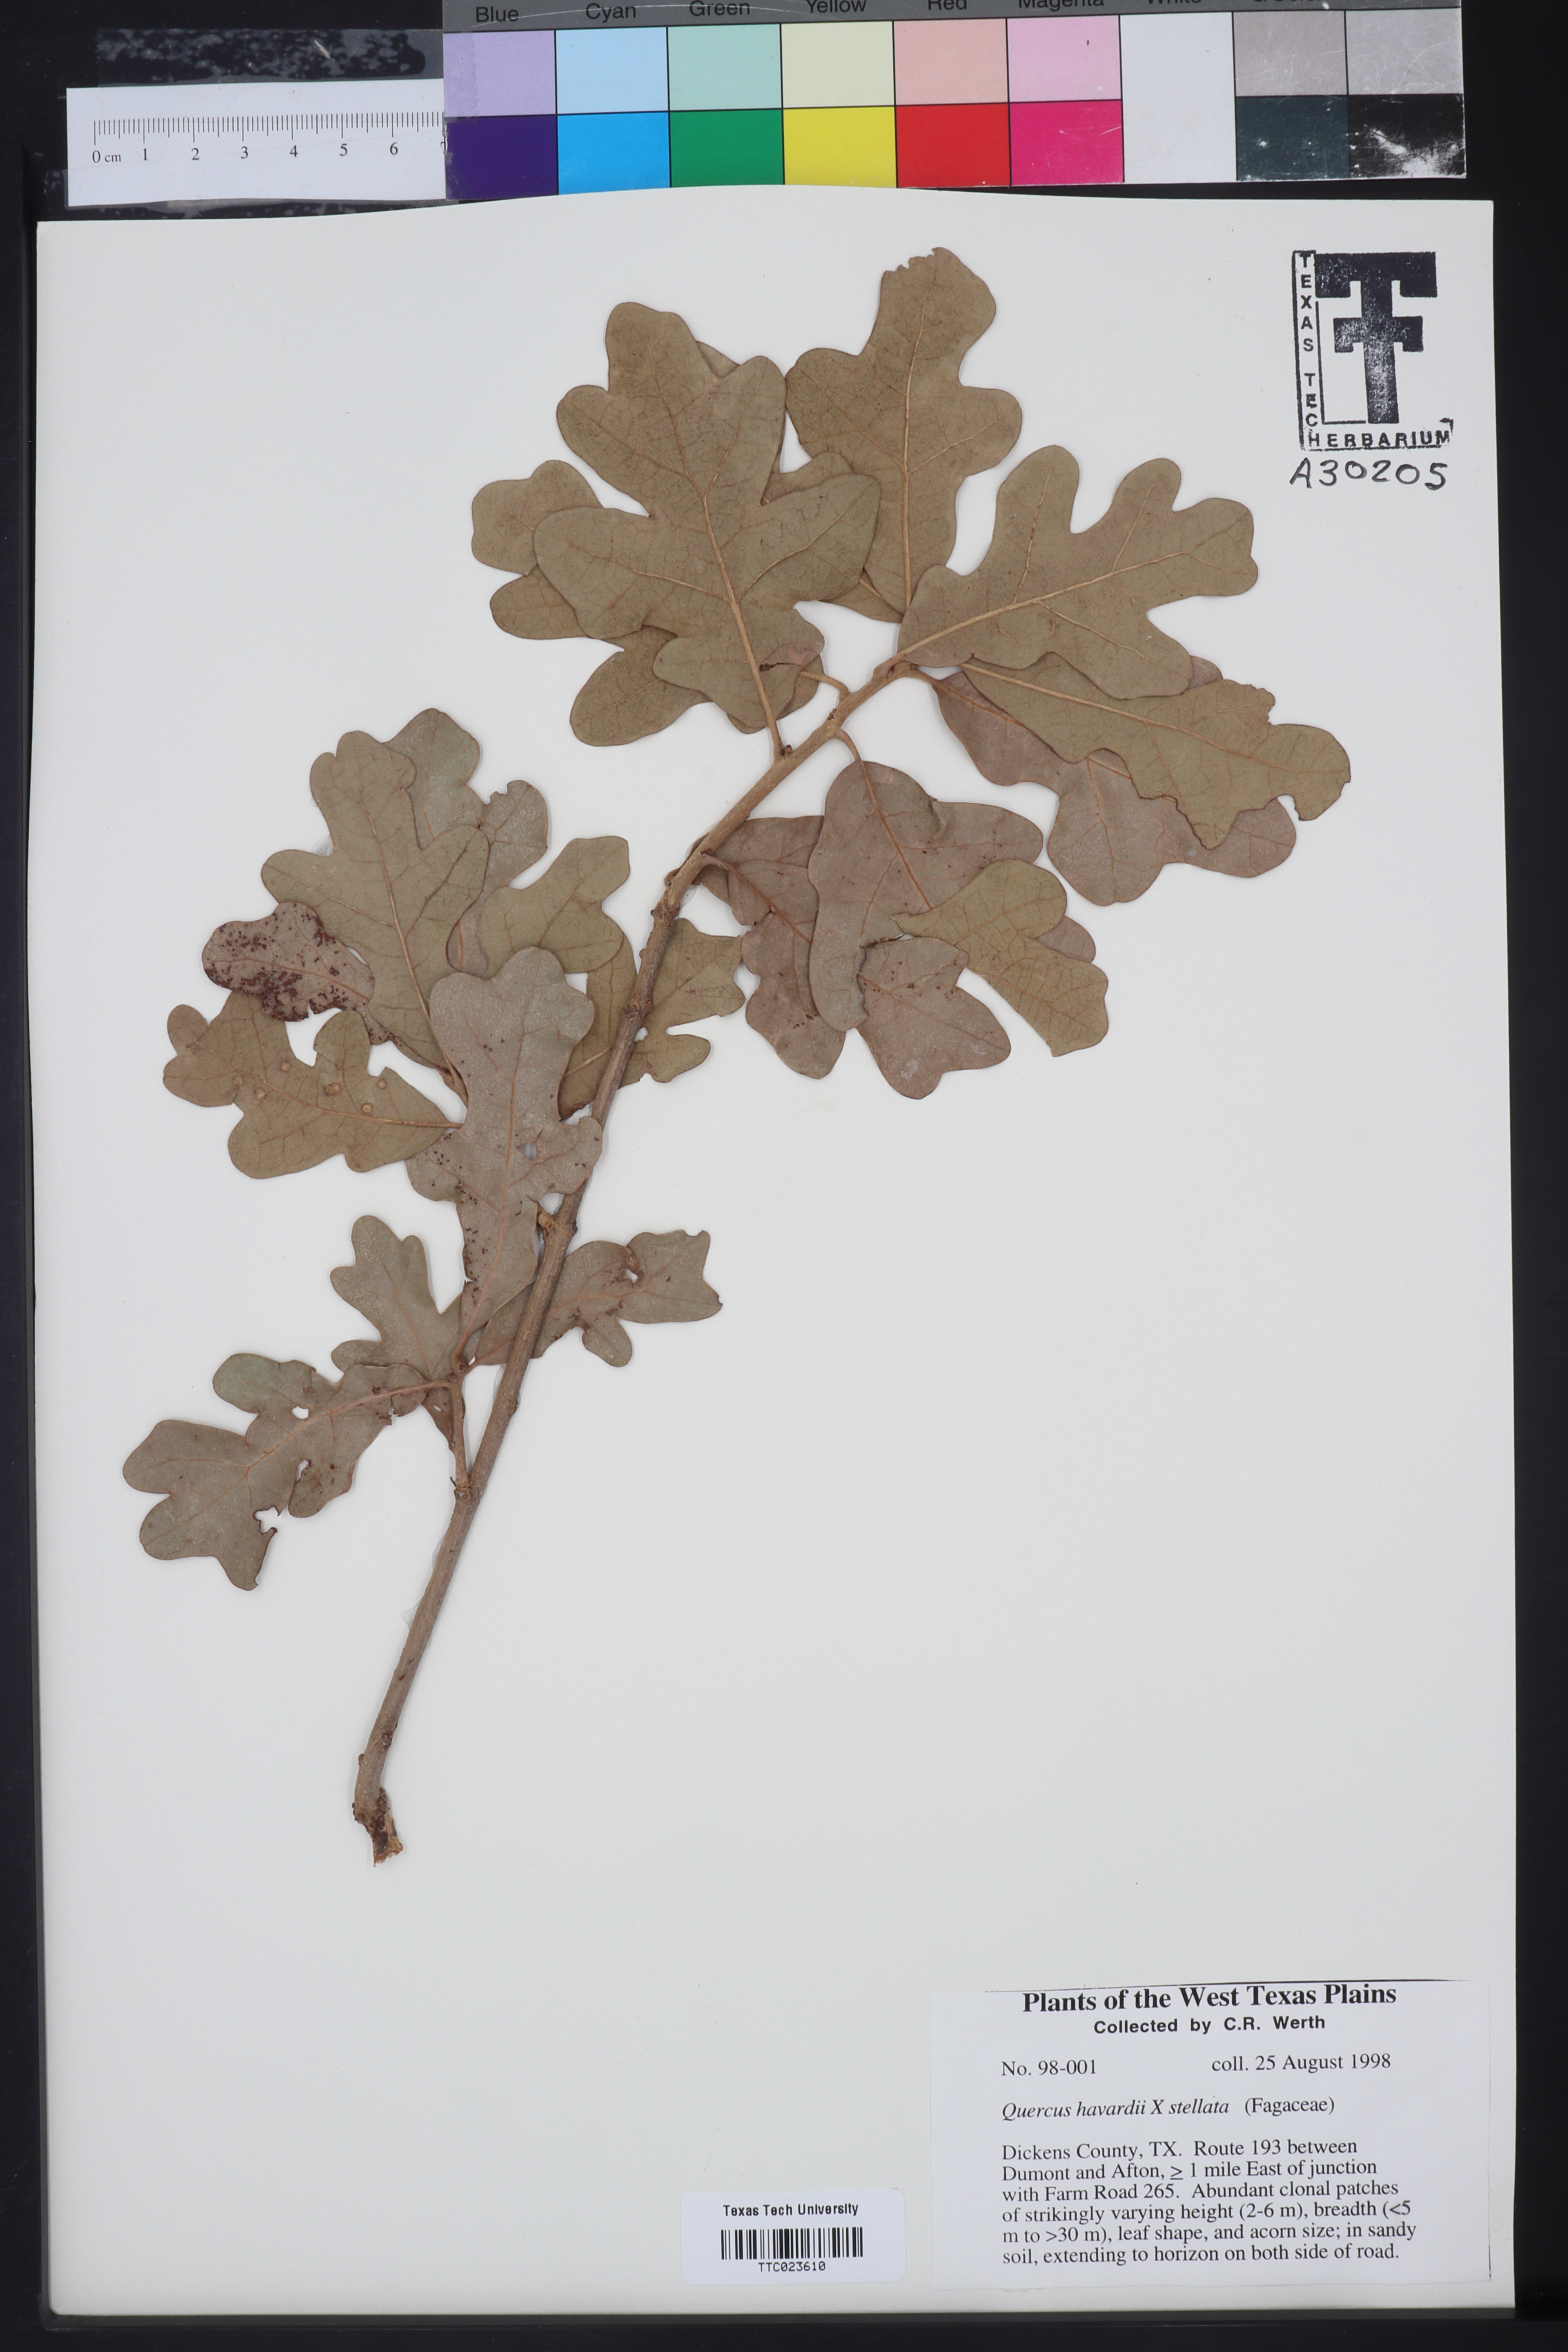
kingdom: Plantae
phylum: Tracheophyta
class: Magnoliopsida
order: Fagales
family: Fagaceae
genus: Quercus
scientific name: Quercus havardii
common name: Shinnery oak
